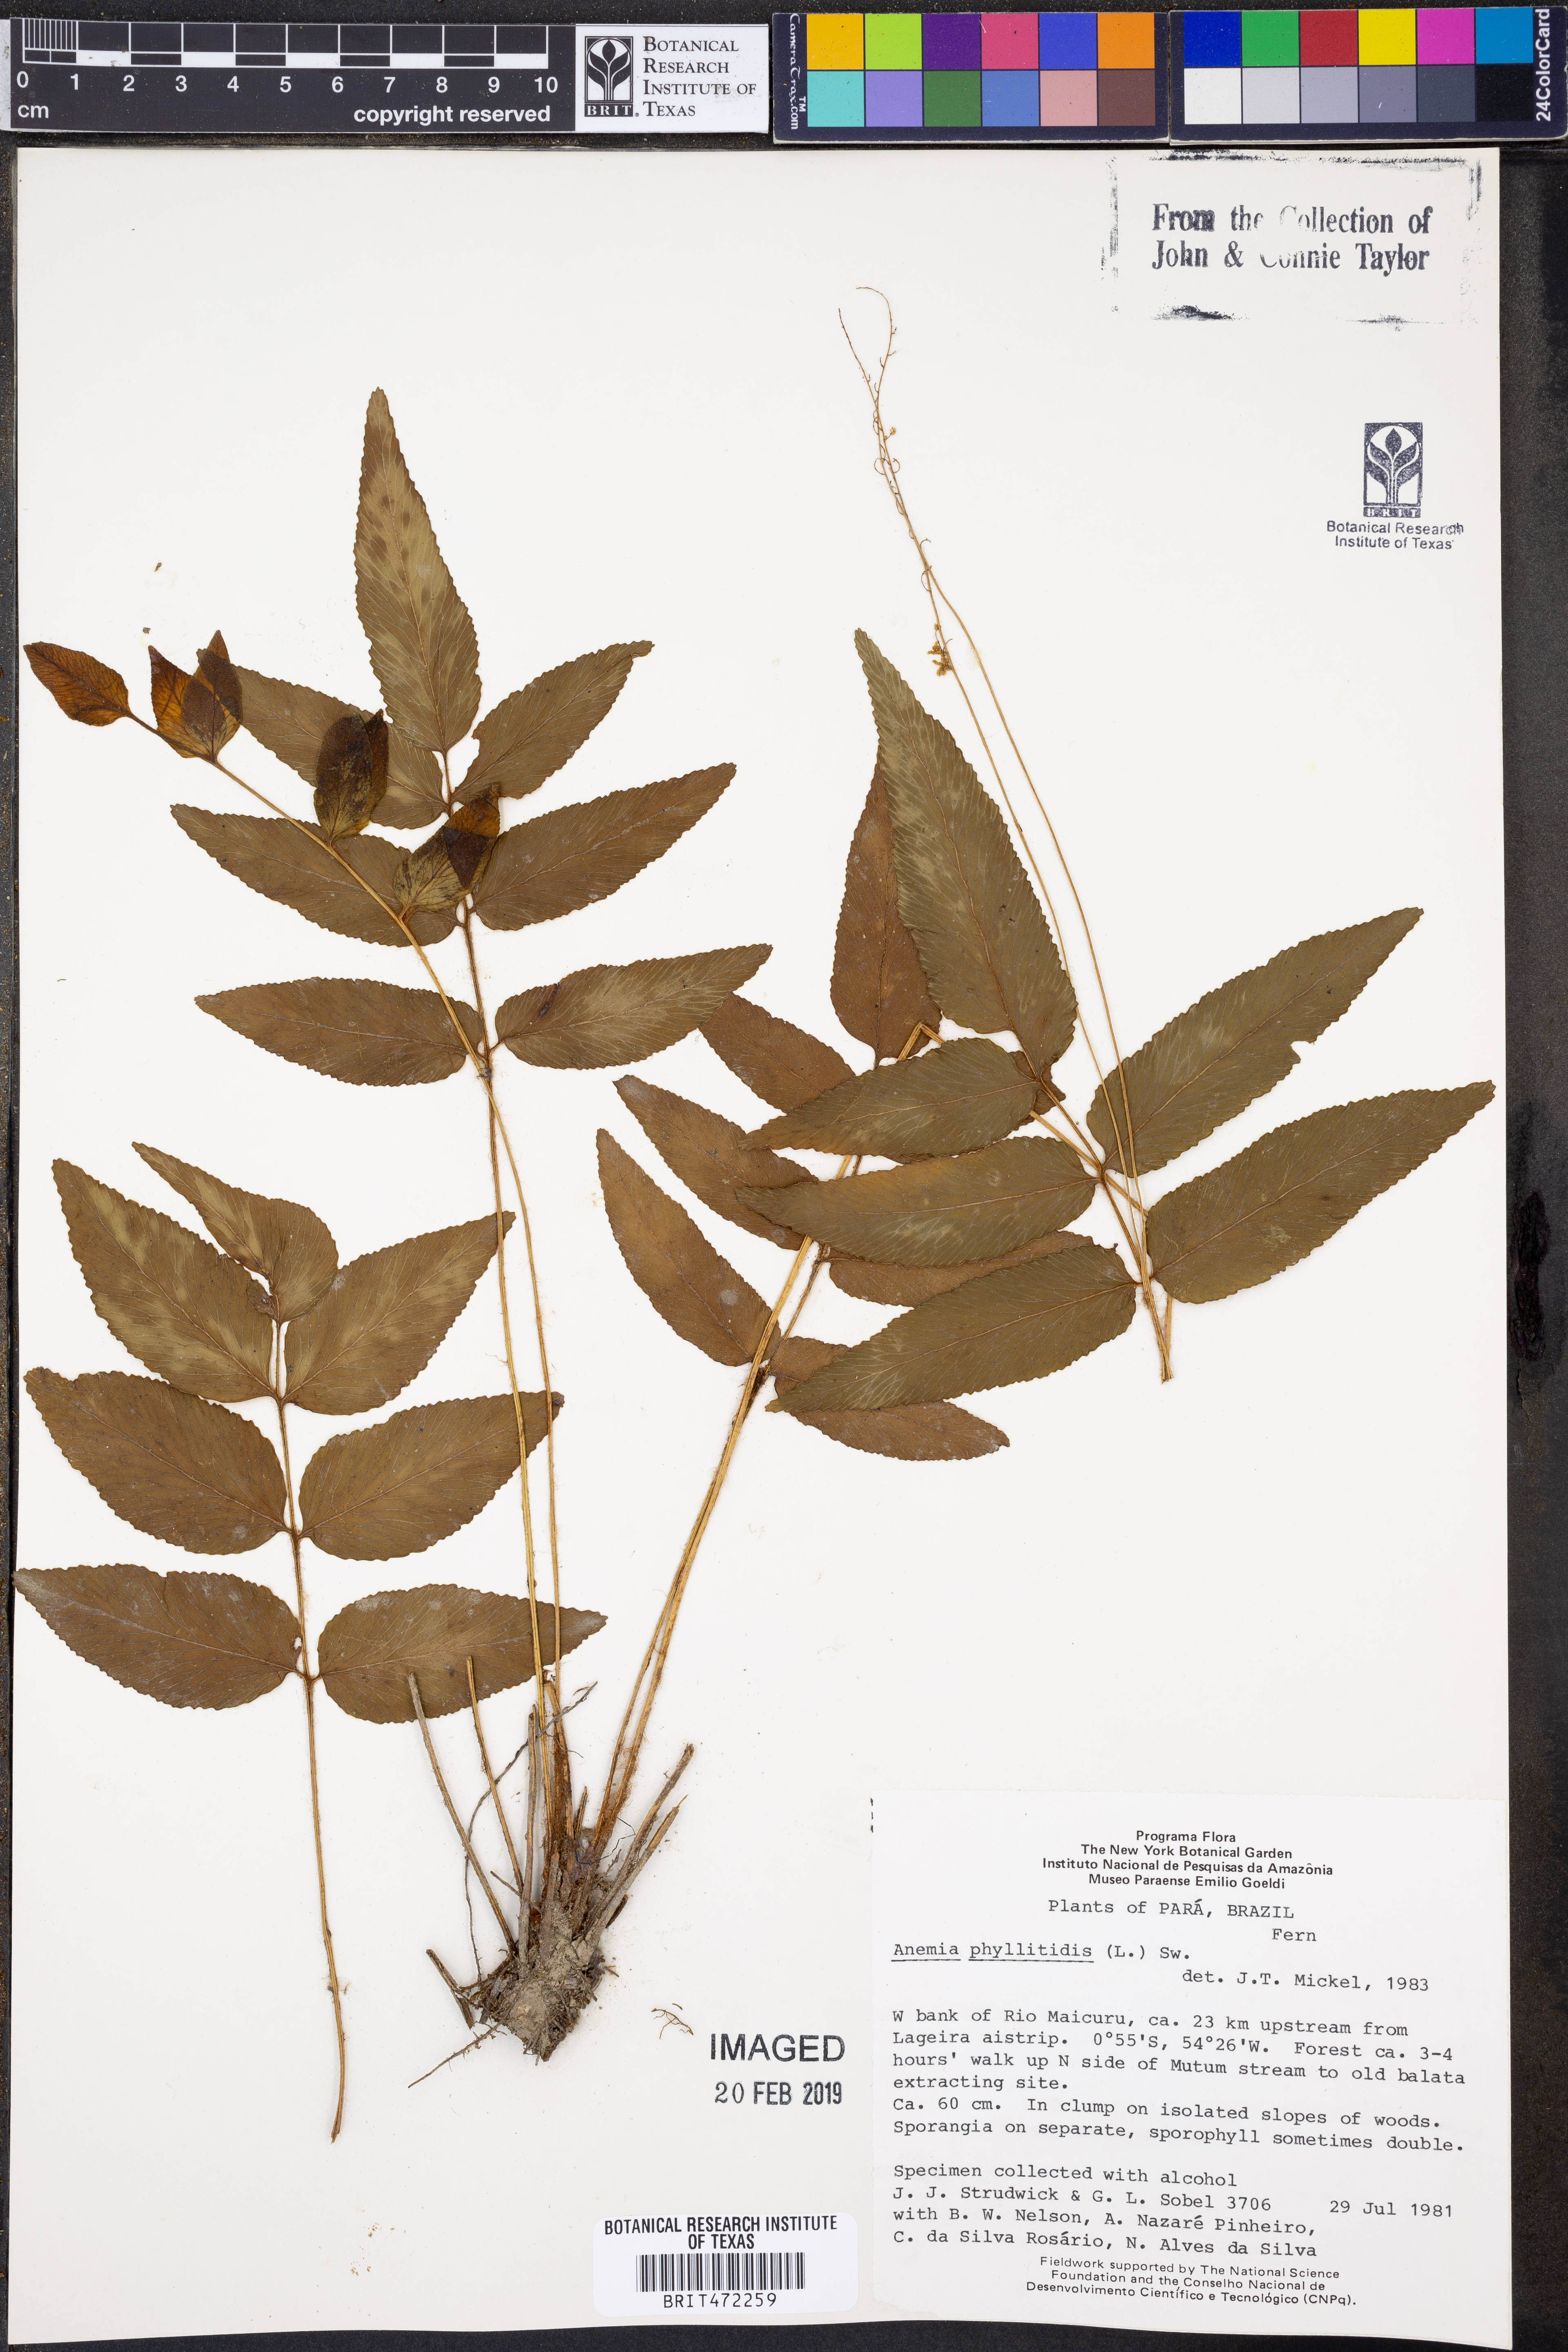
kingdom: Plantae
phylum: Tracheophyta
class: Polypodiopsida
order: Schizaeales
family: Anemiaceae
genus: Anemia
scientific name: Anemia phyllitidis
